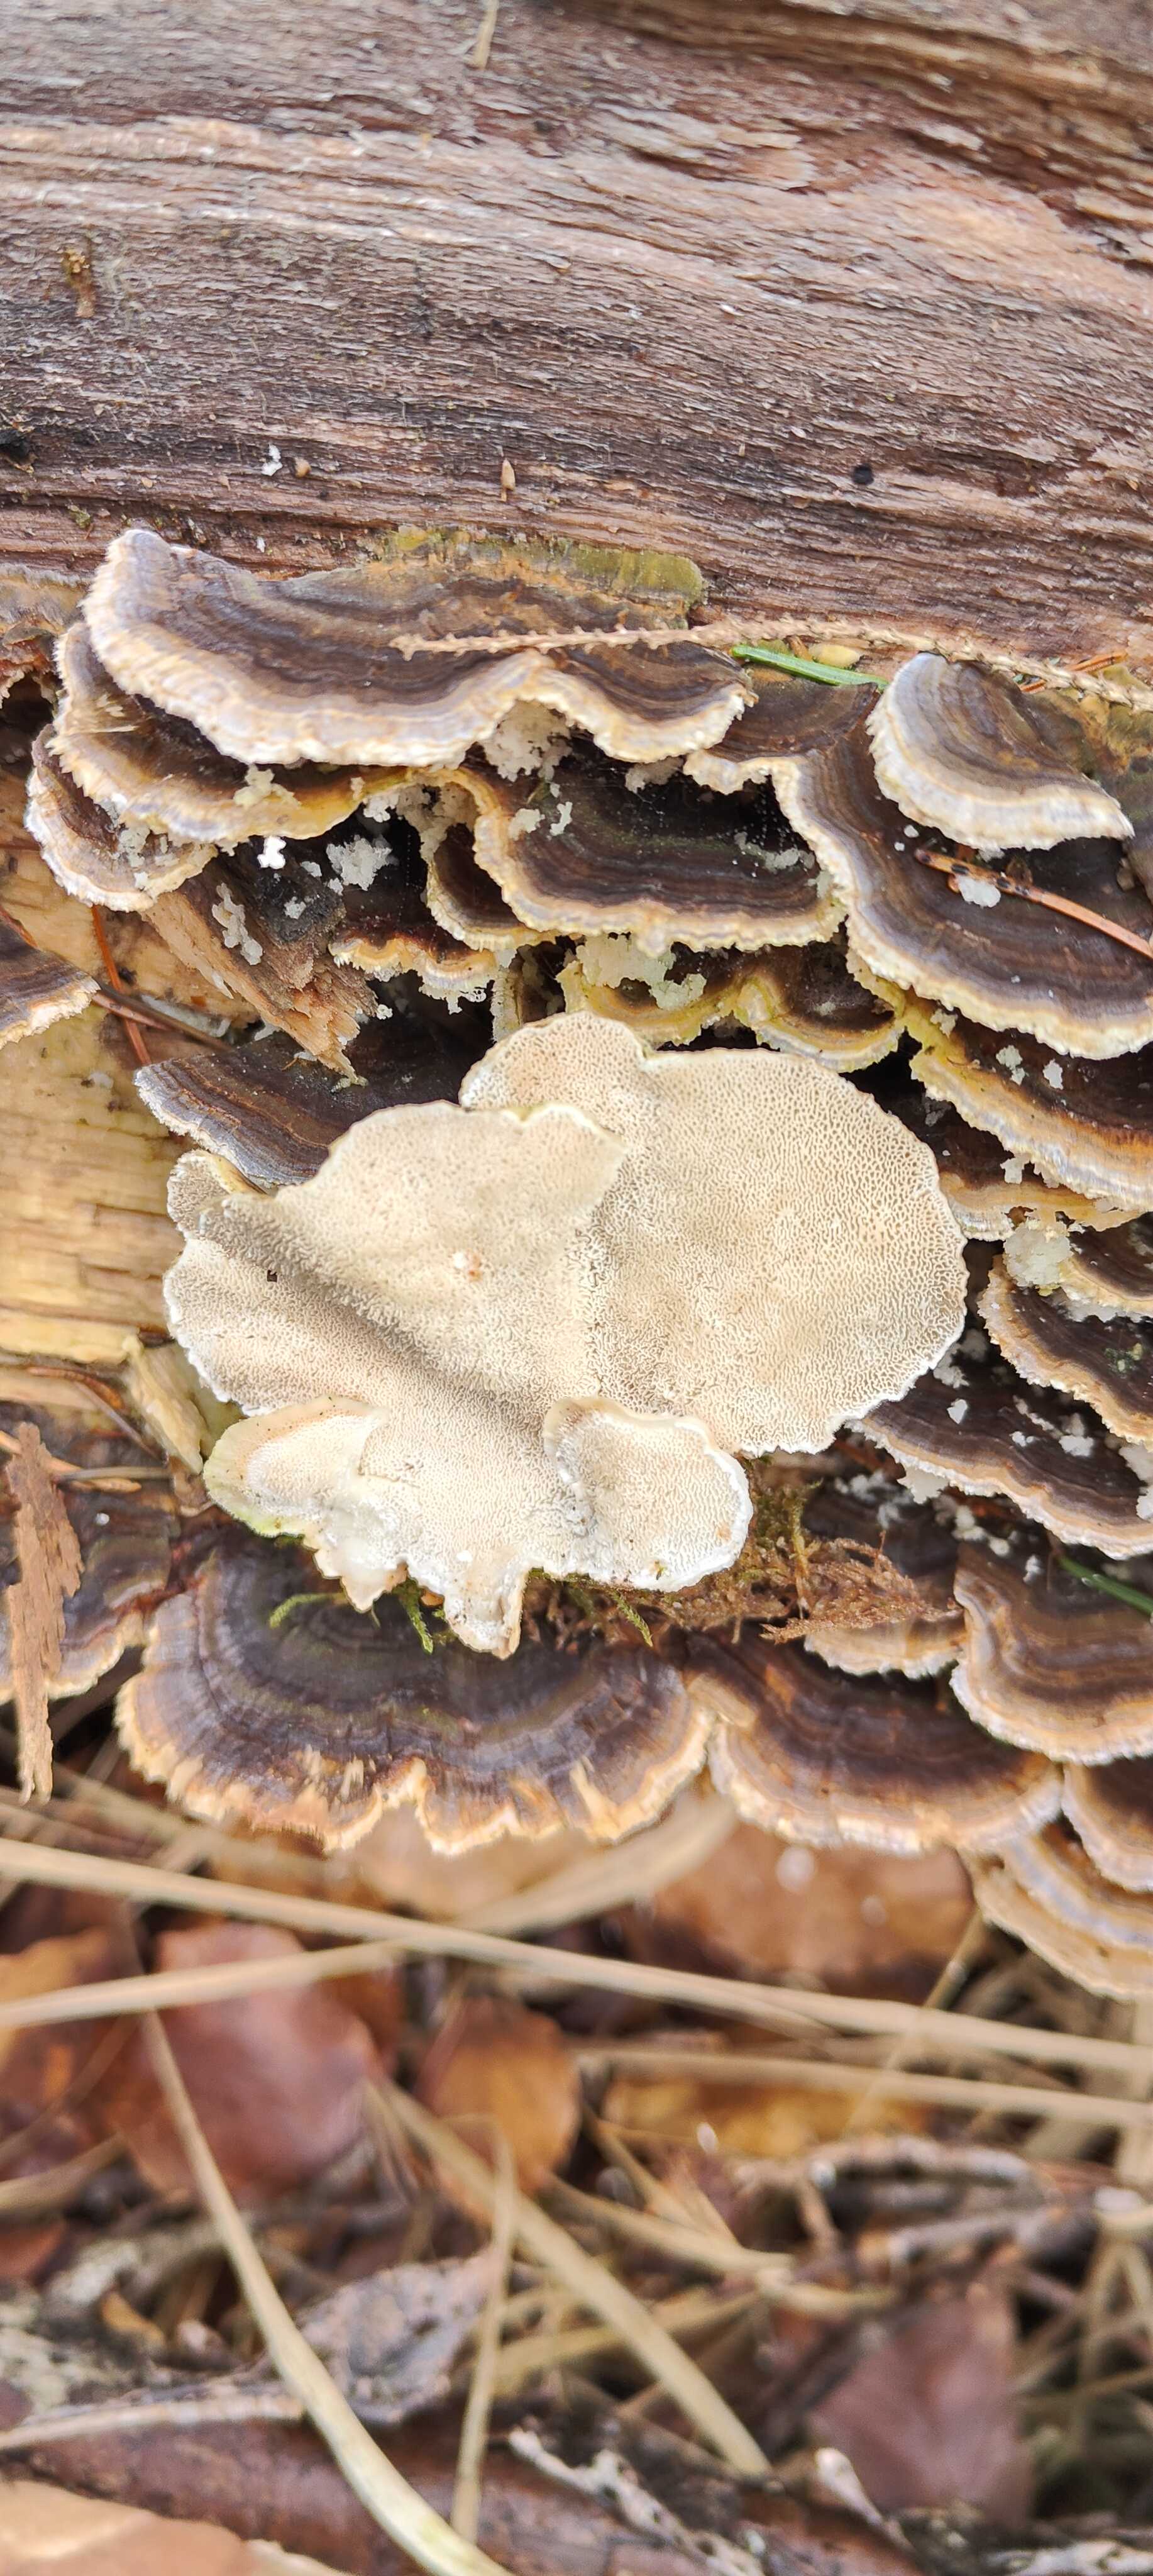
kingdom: Fungi
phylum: Basidiomycota
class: Agaricomycetes
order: Polyporales
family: Polyporaceae
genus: Trametes
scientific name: Trametes versicolor
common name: broget læderporesvamp
